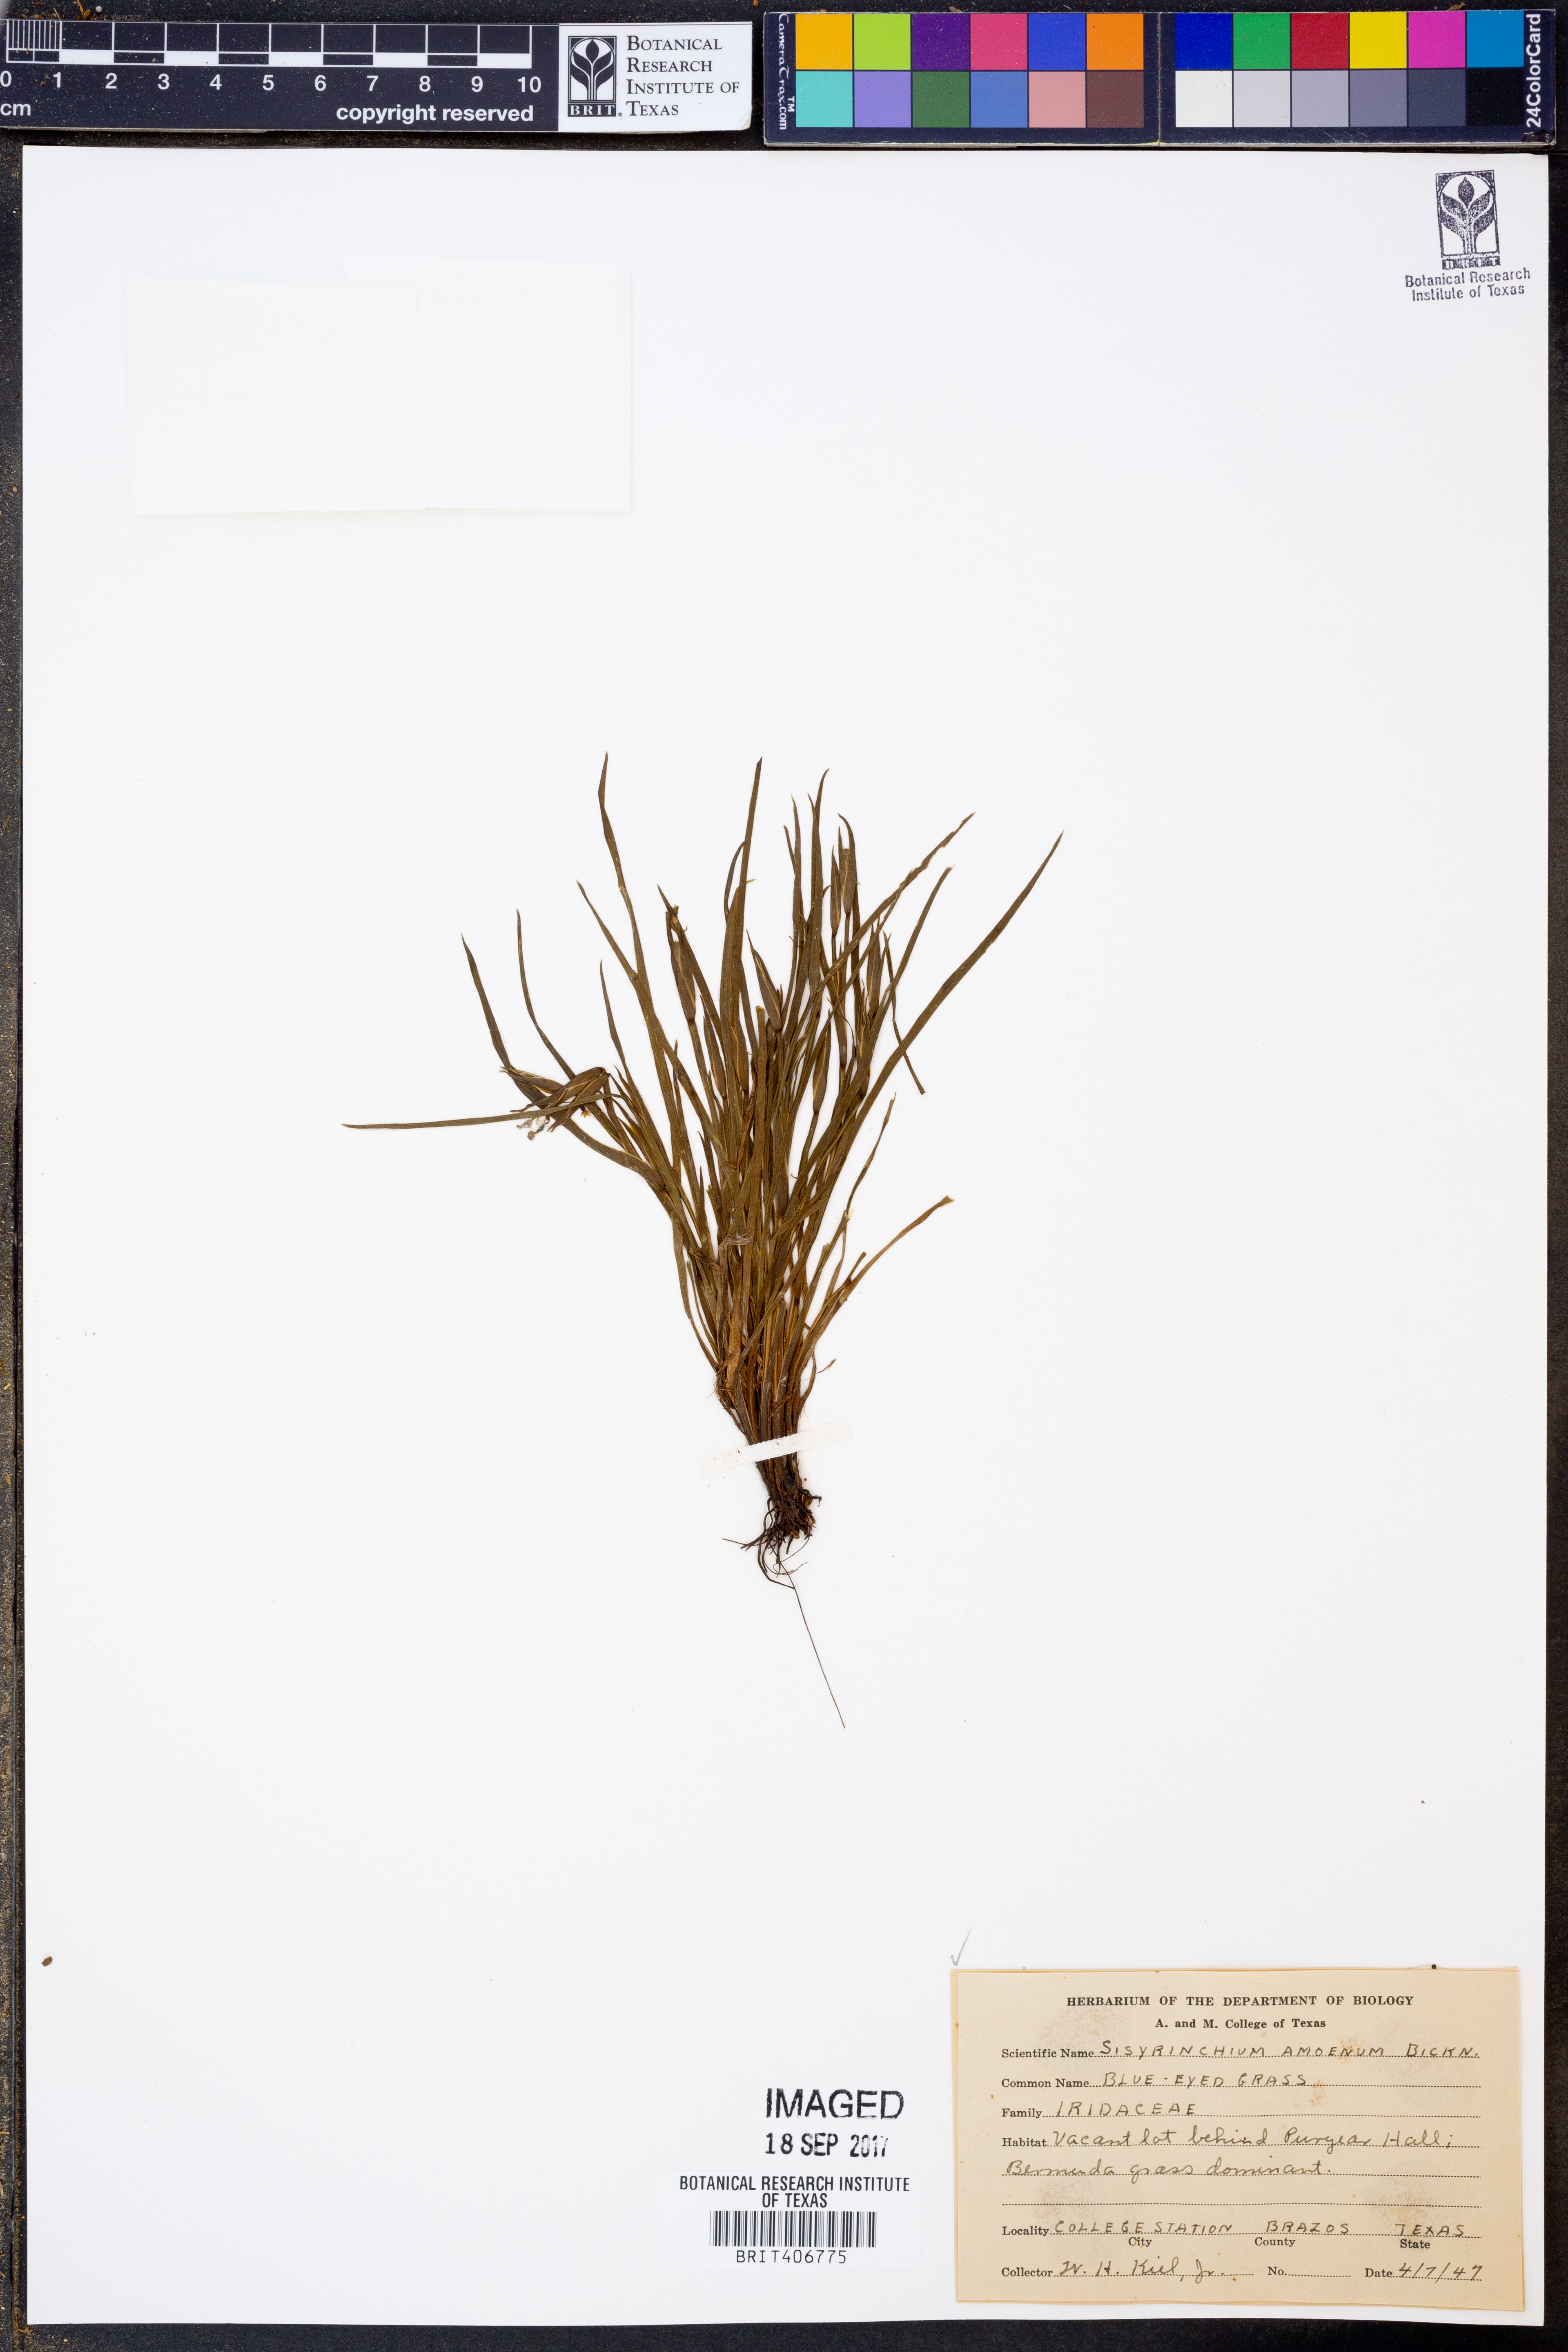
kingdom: Plantae
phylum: Tracheophyta
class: Liliopsida
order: Asparagales
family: Iridaceae
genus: Sisyrinchium
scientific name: Sisyrinchium ensigerum
